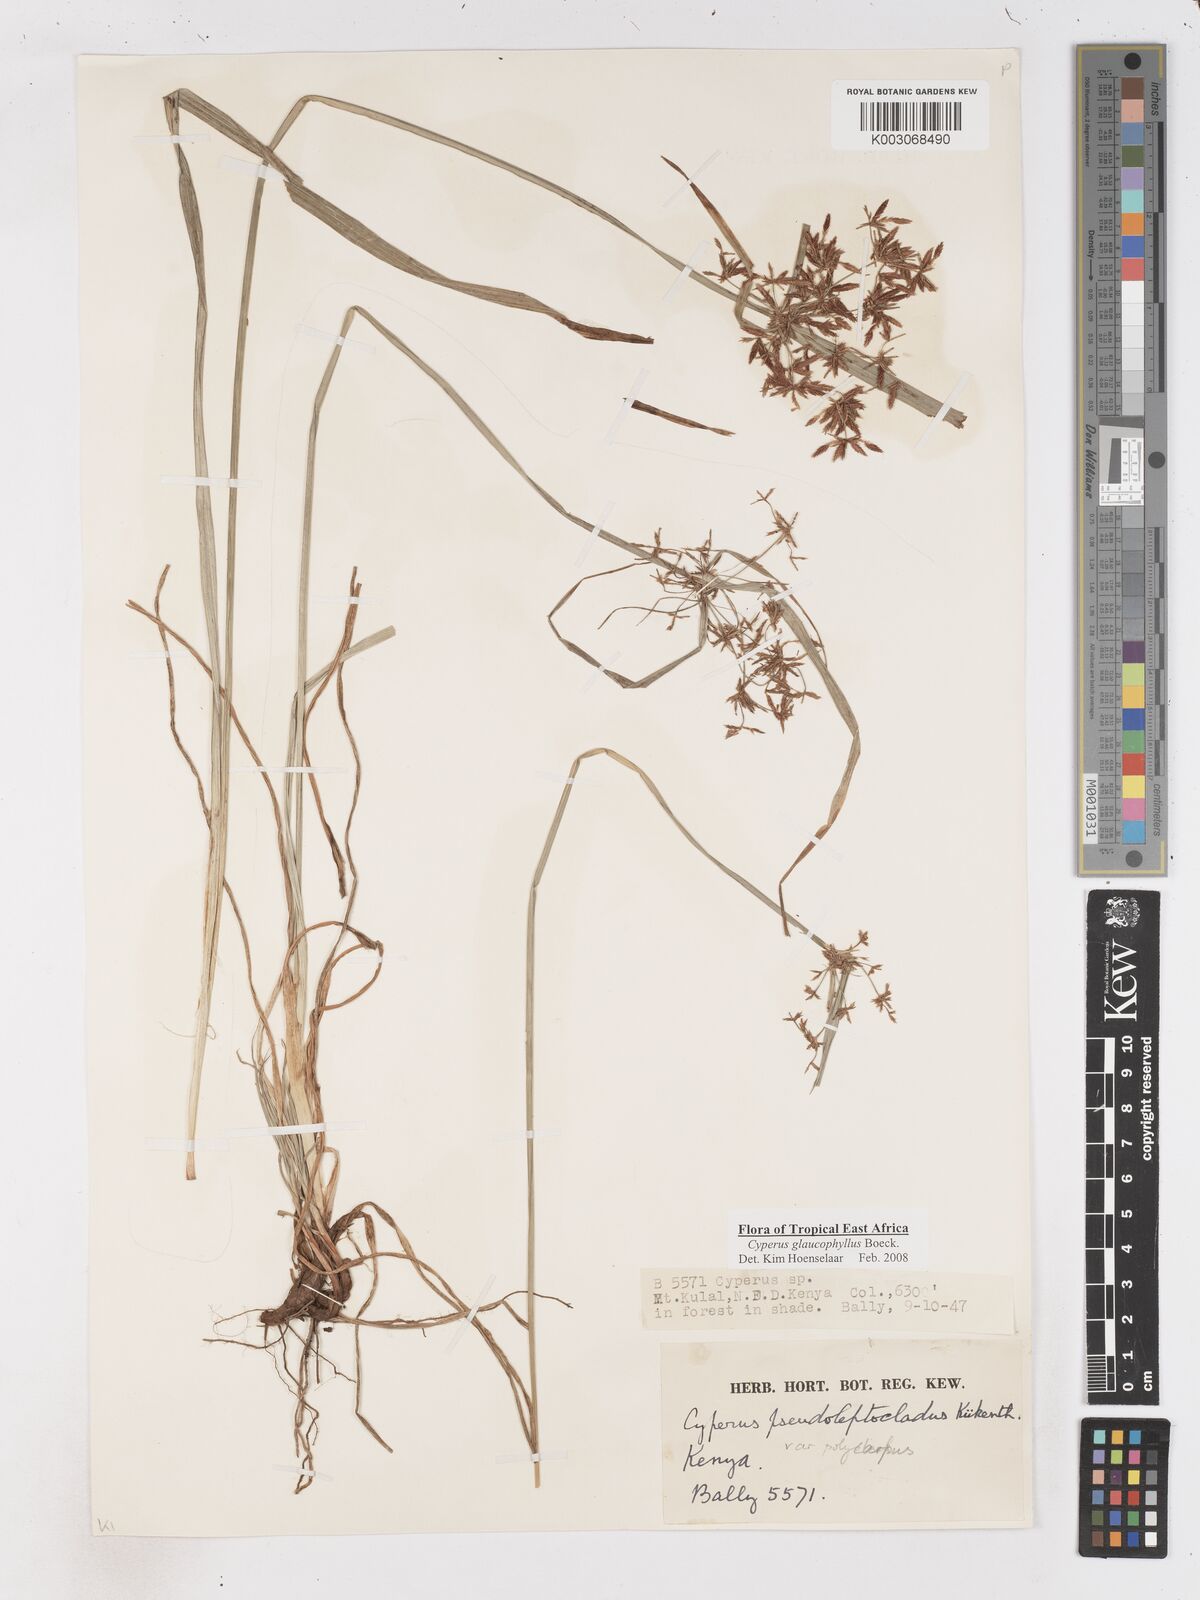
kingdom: Plantae
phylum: Tracheophyta
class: Liliopsida
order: Poales
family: Cyperaceae
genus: Cyperus
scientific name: Cyperus glaucophyllus
